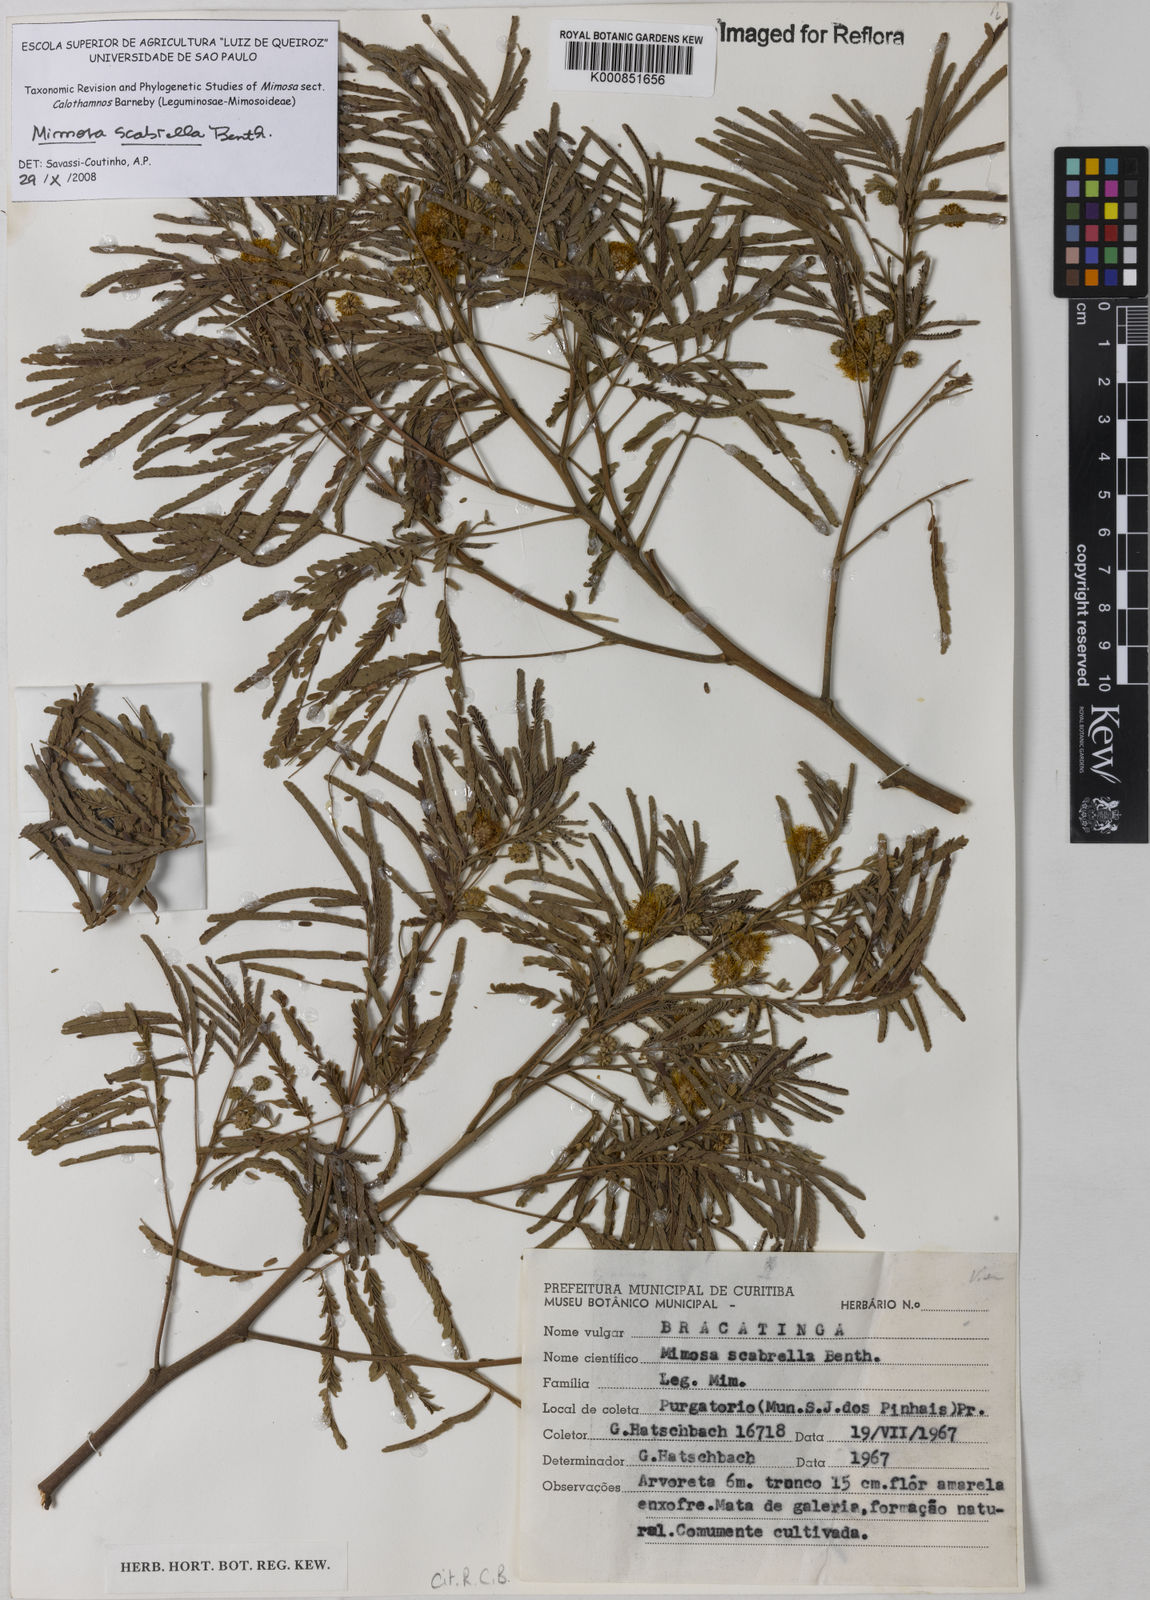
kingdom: Plantae
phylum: Tracheophyta
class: Magnoliopsida
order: Fabales
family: Fabaceae
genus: Mimosa
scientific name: Mimosa scabrella
